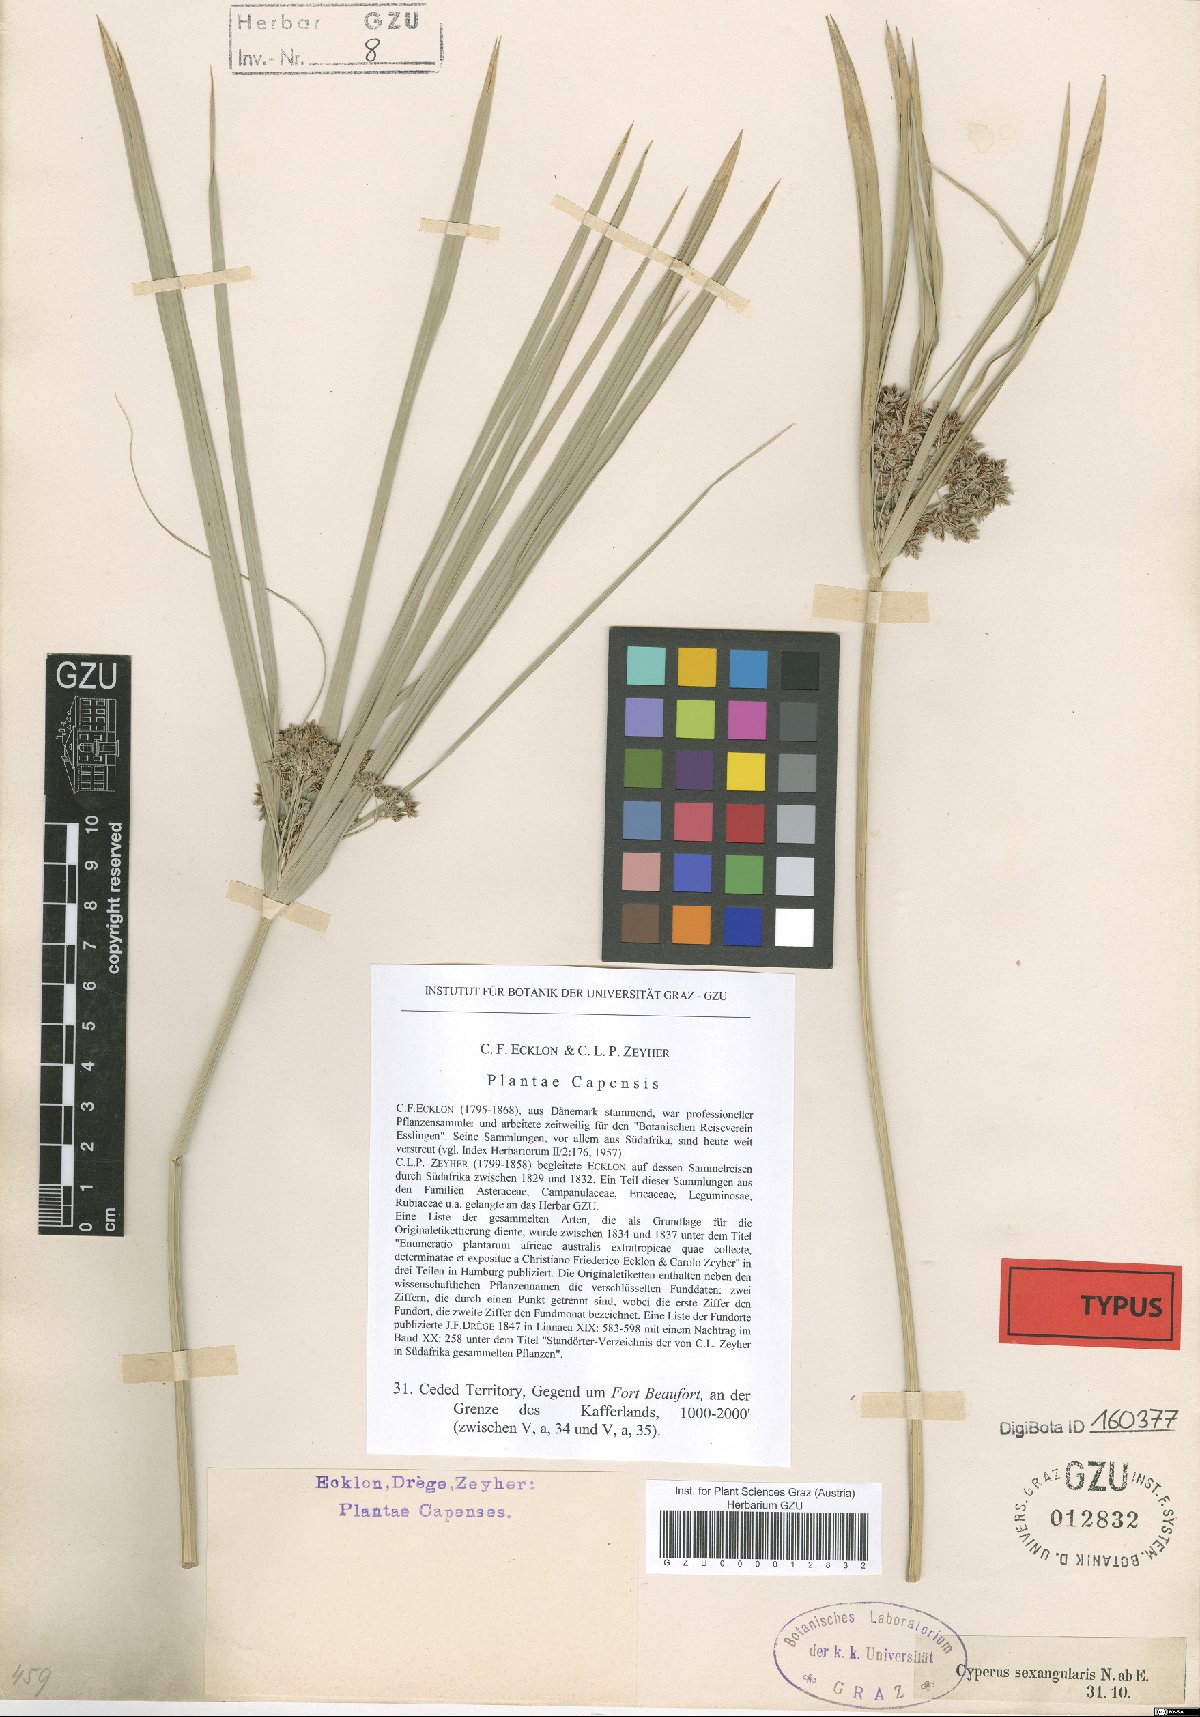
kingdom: Plantae
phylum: Tracheophyta
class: Liliopsida
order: Poales
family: Cyperaceae
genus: Cyperus
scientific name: Cyperus sexangularis
